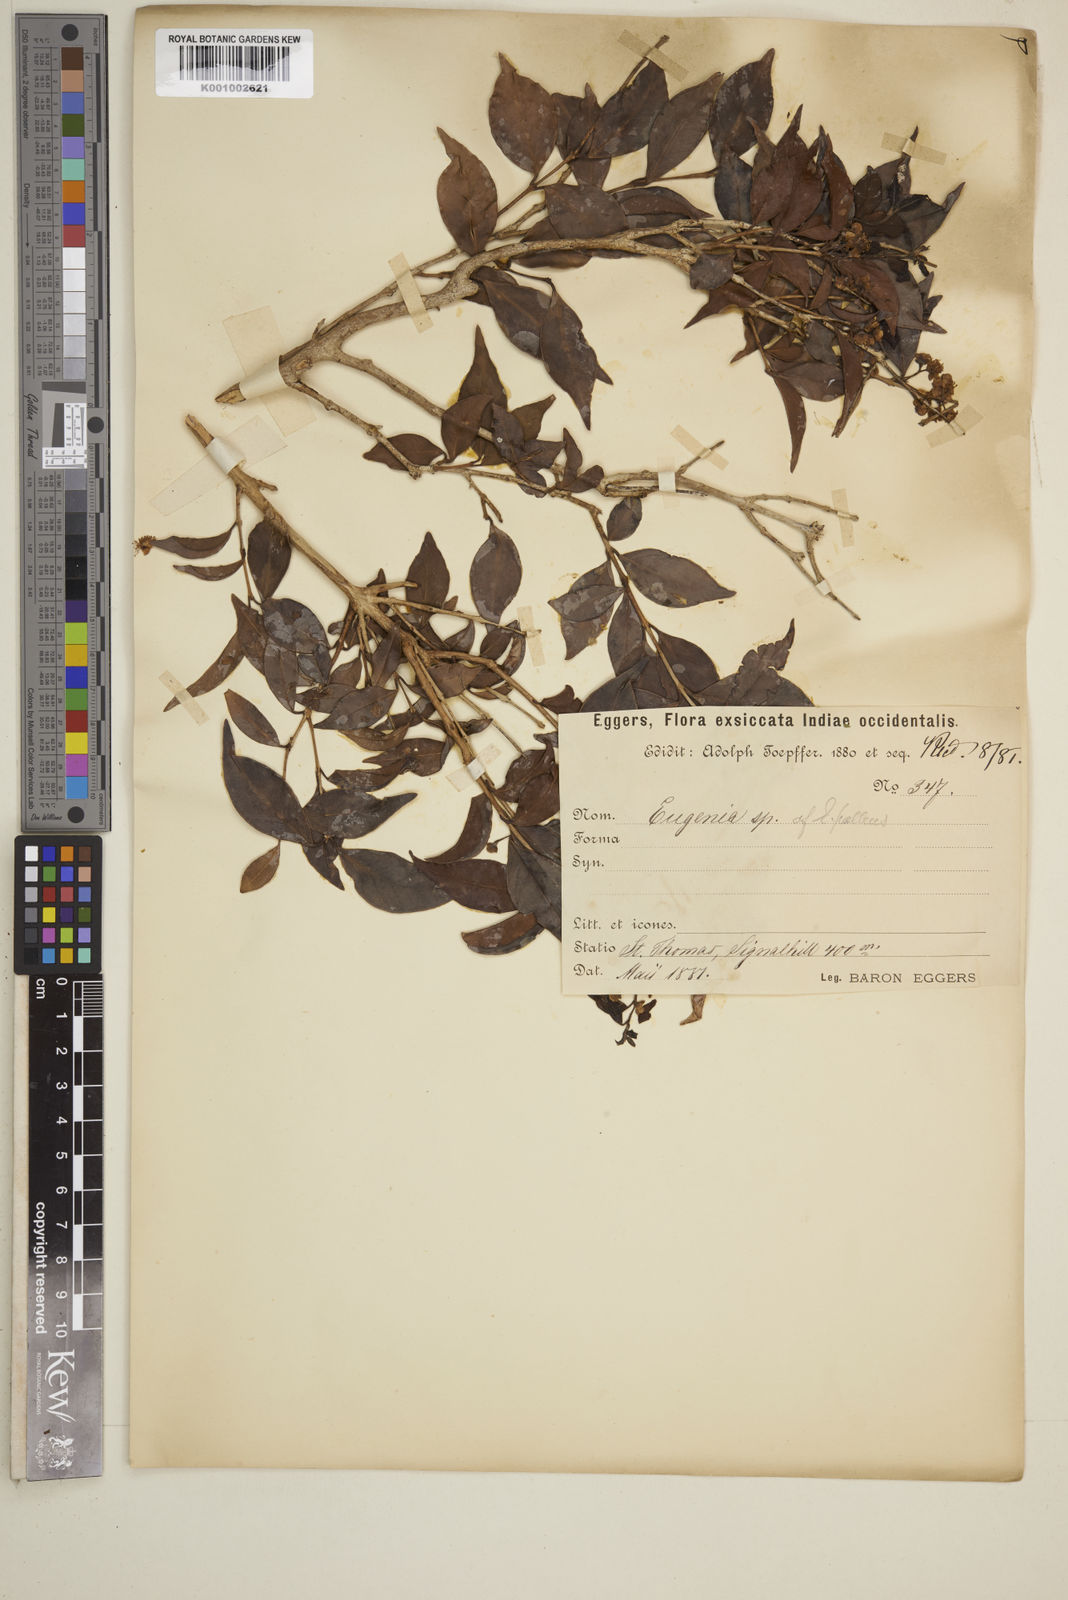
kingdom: Plantae
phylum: Tracheophyta
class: Magnoliopsida
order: Myrtales
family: Myrtaceae
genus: Myrcia
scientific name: Myrcia neopallens
